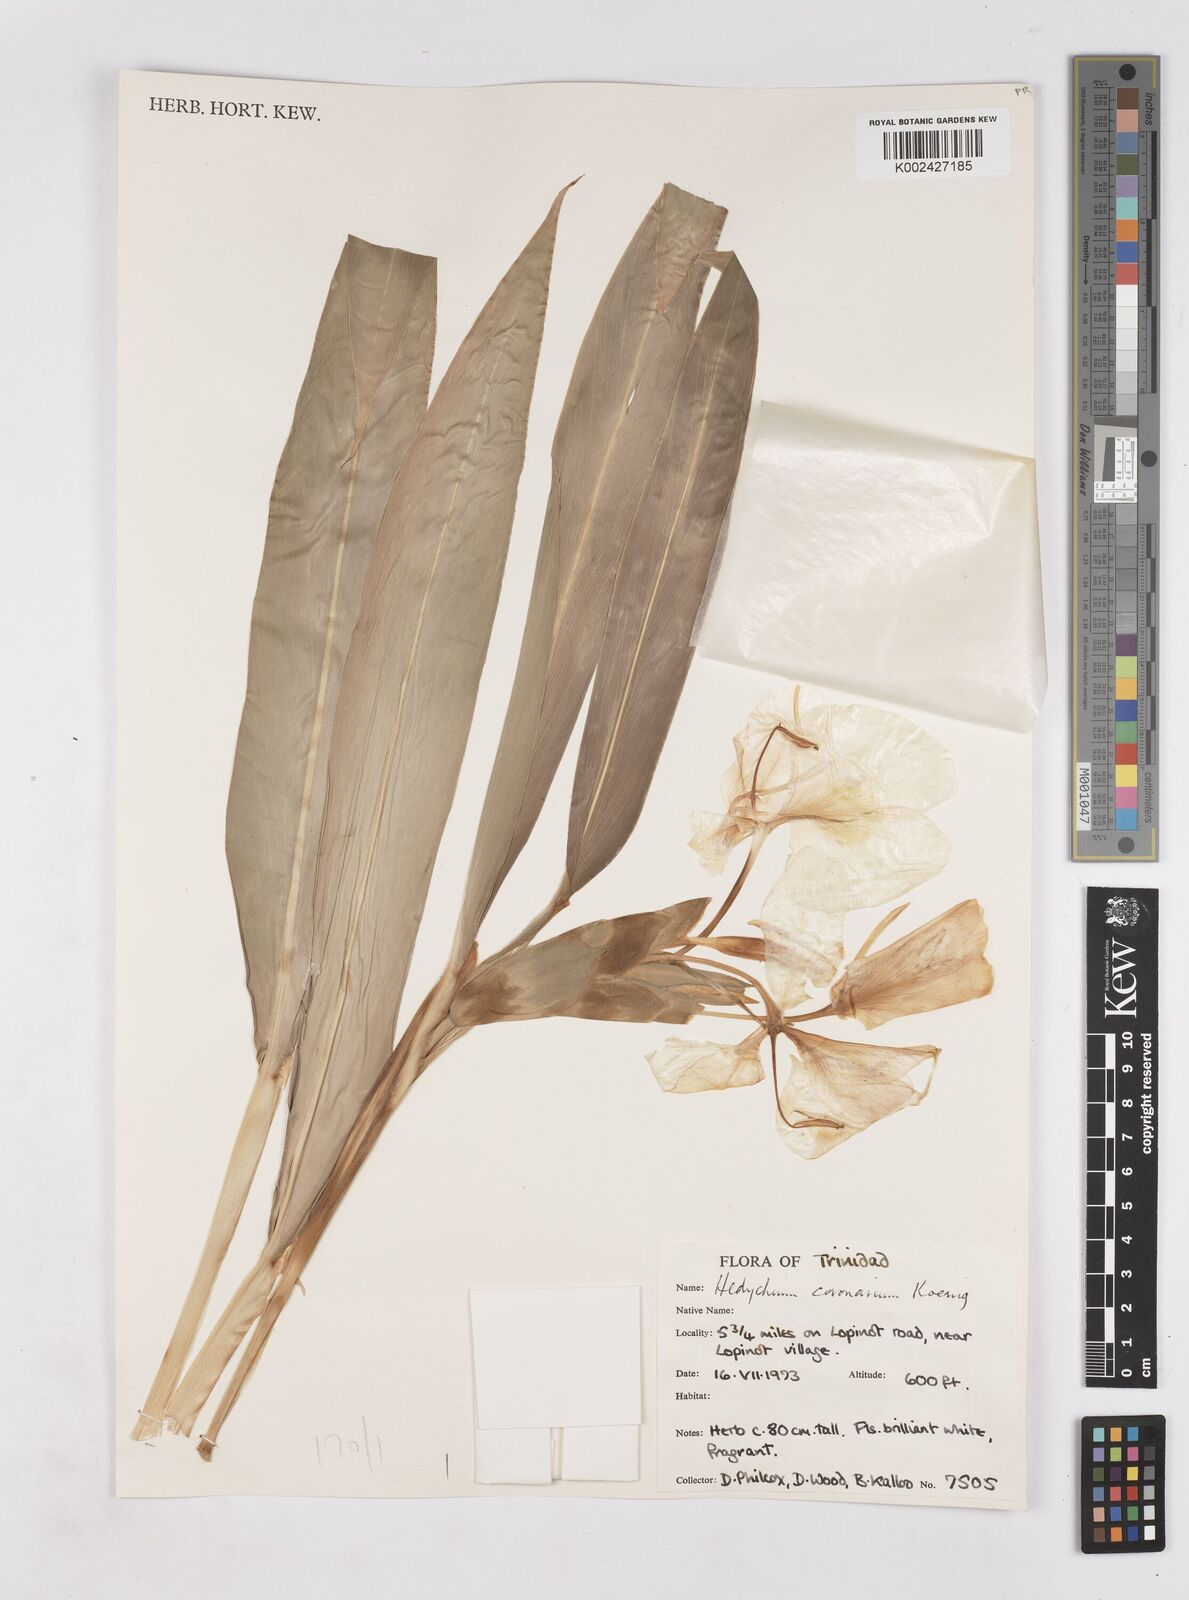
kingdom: Plantae
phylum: Tracheophyta
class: Liliopsida
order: Zingiberales
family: Zingiberaceae
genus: Hedychium
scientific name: Hedychium coronarium
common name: White garland-lily
